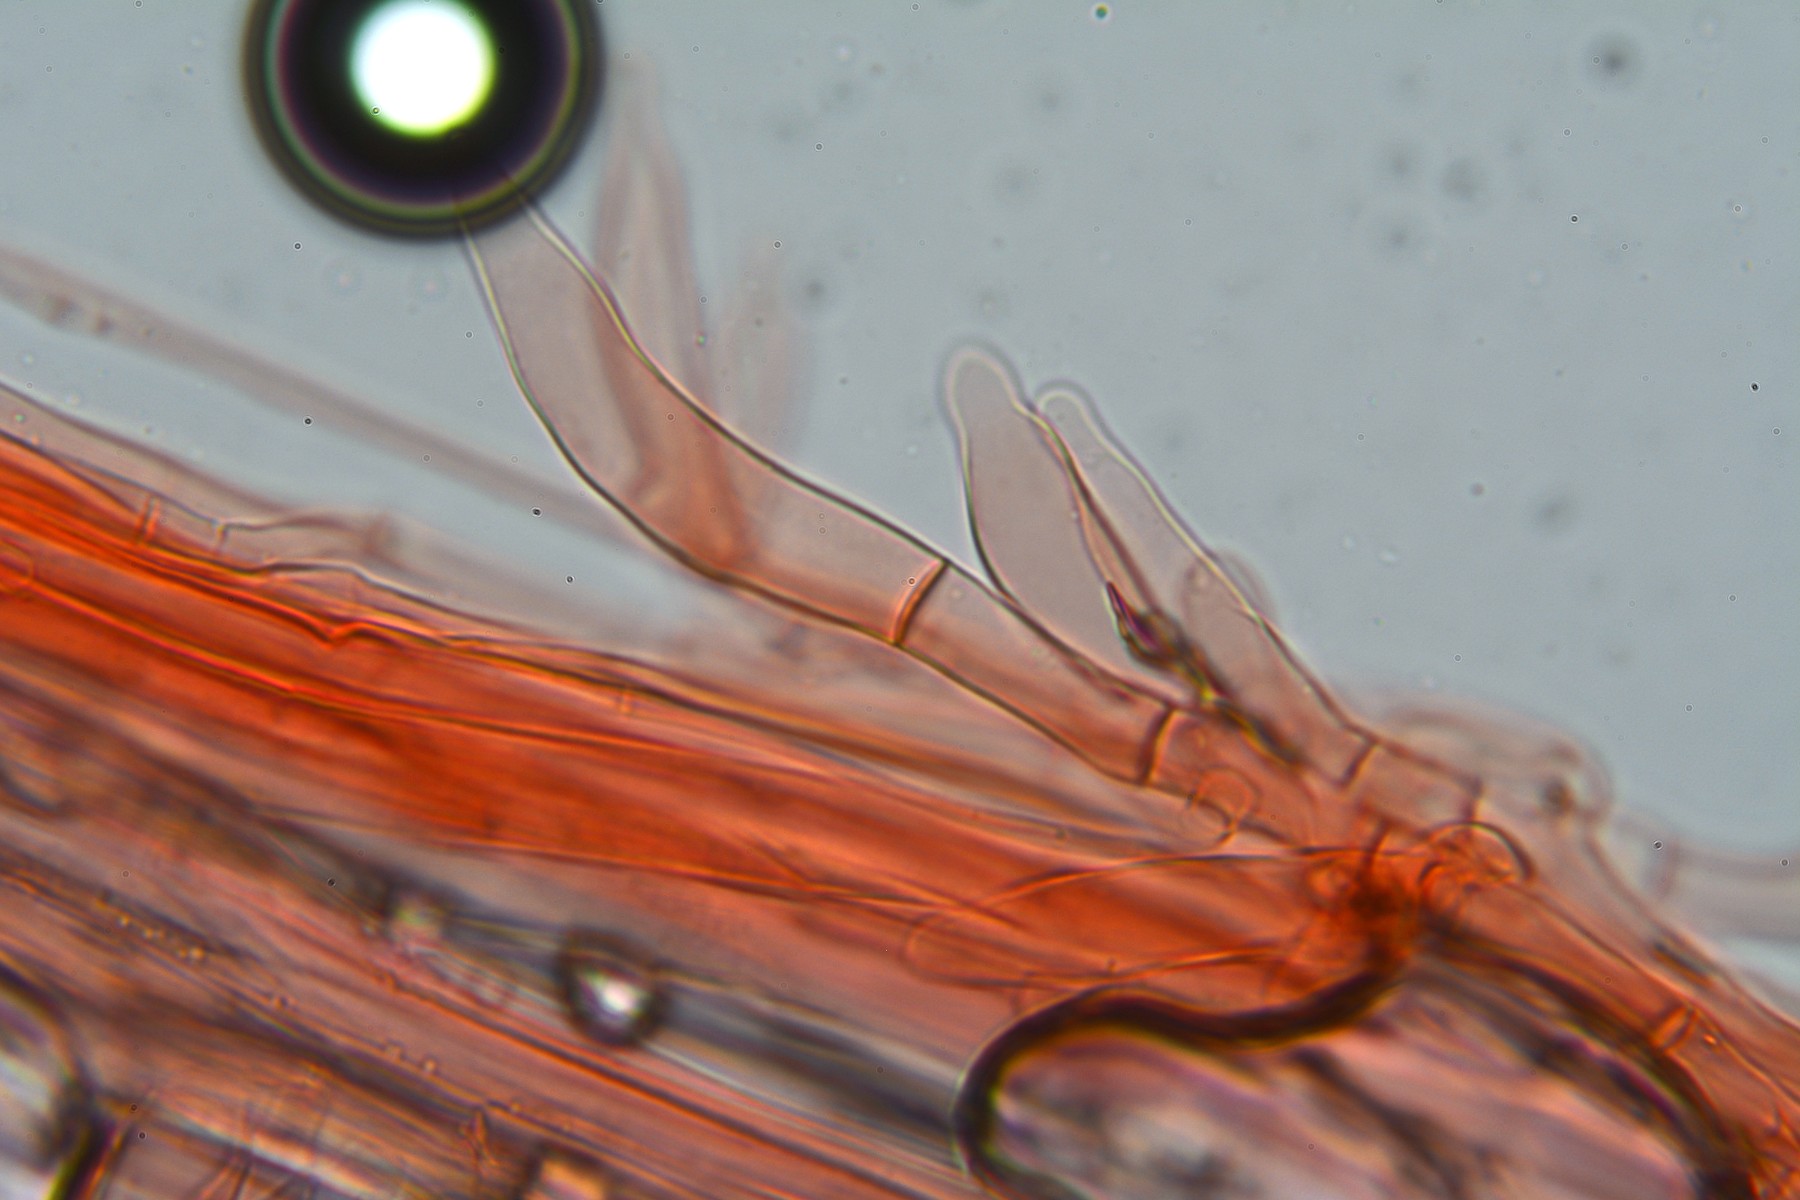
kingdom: Fungi
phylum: Basidiomycota
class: Agaricomycetes
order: Agaricales
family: Pluteaceae
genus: Pluteus
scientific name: Pluteus semibulbosus
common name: knoldet skærmhat
